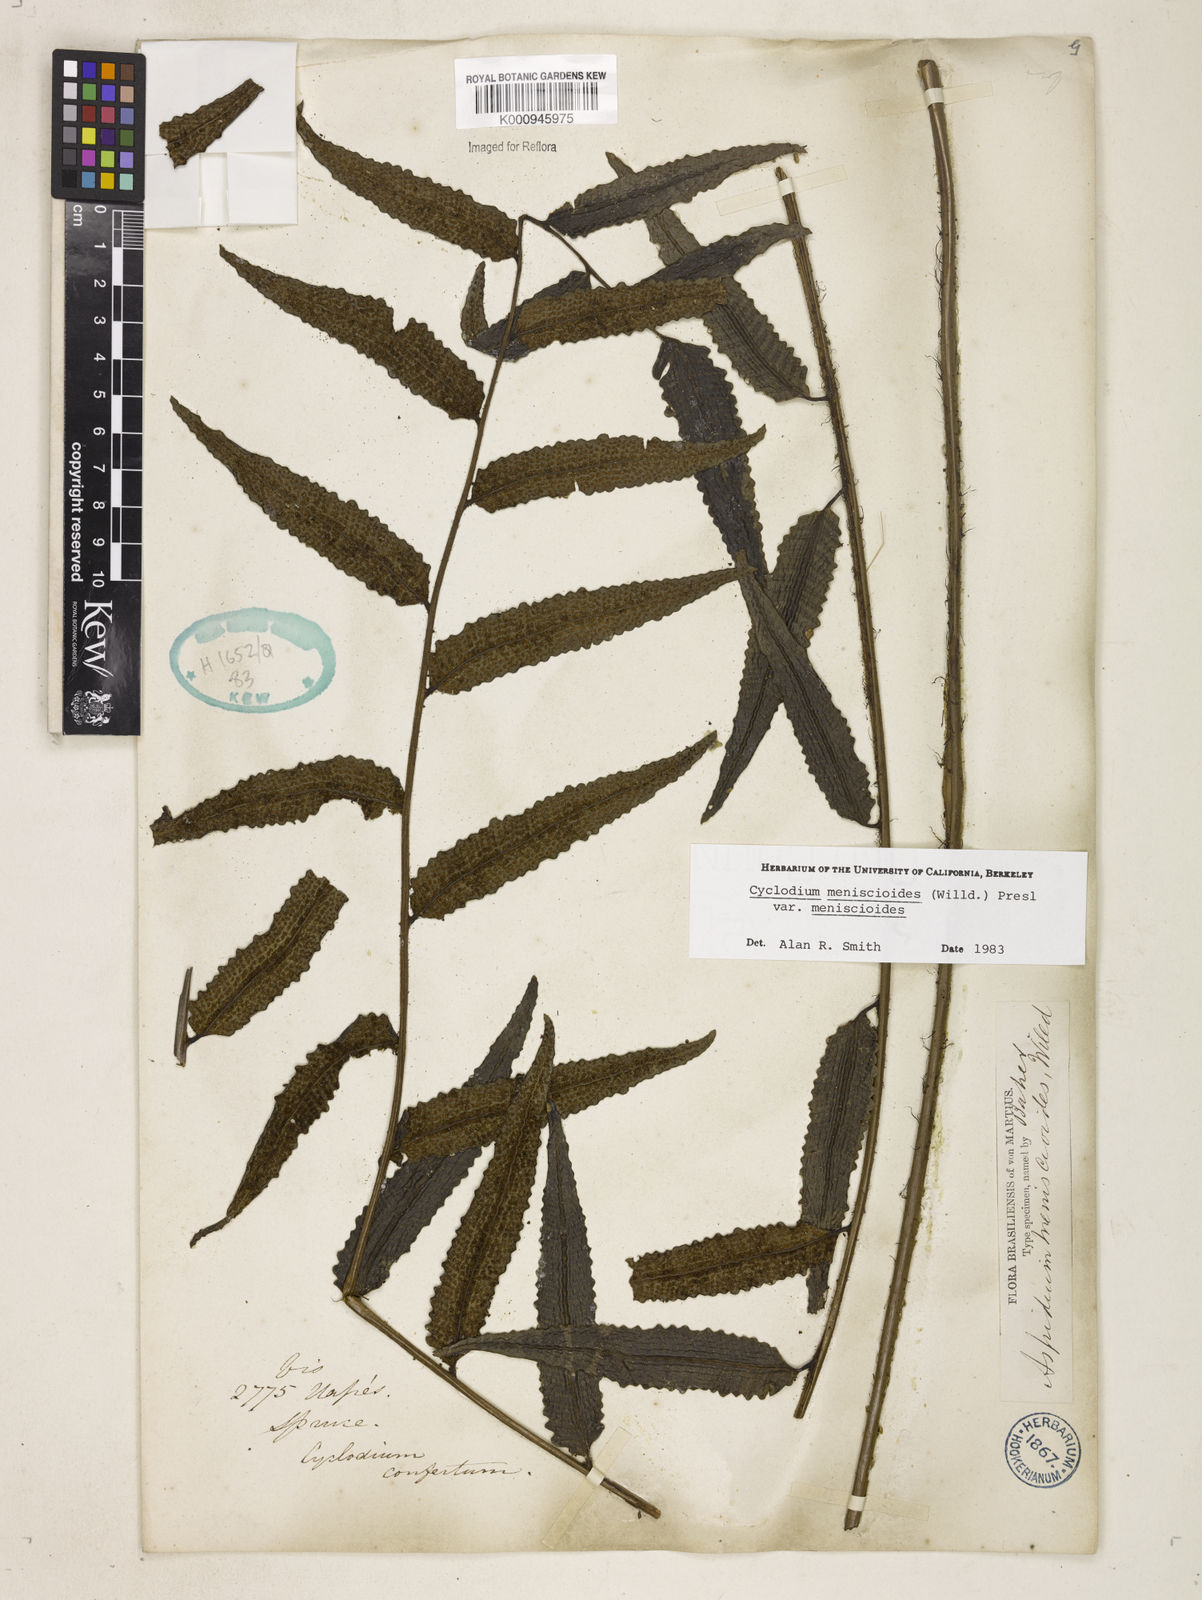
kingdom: Plantae
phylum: Tracheophyta
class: Polypodiopsida
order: Polypodiales
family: Dryopteridaceae
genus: Cyclodium
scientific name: Cyclodium meniscioides
